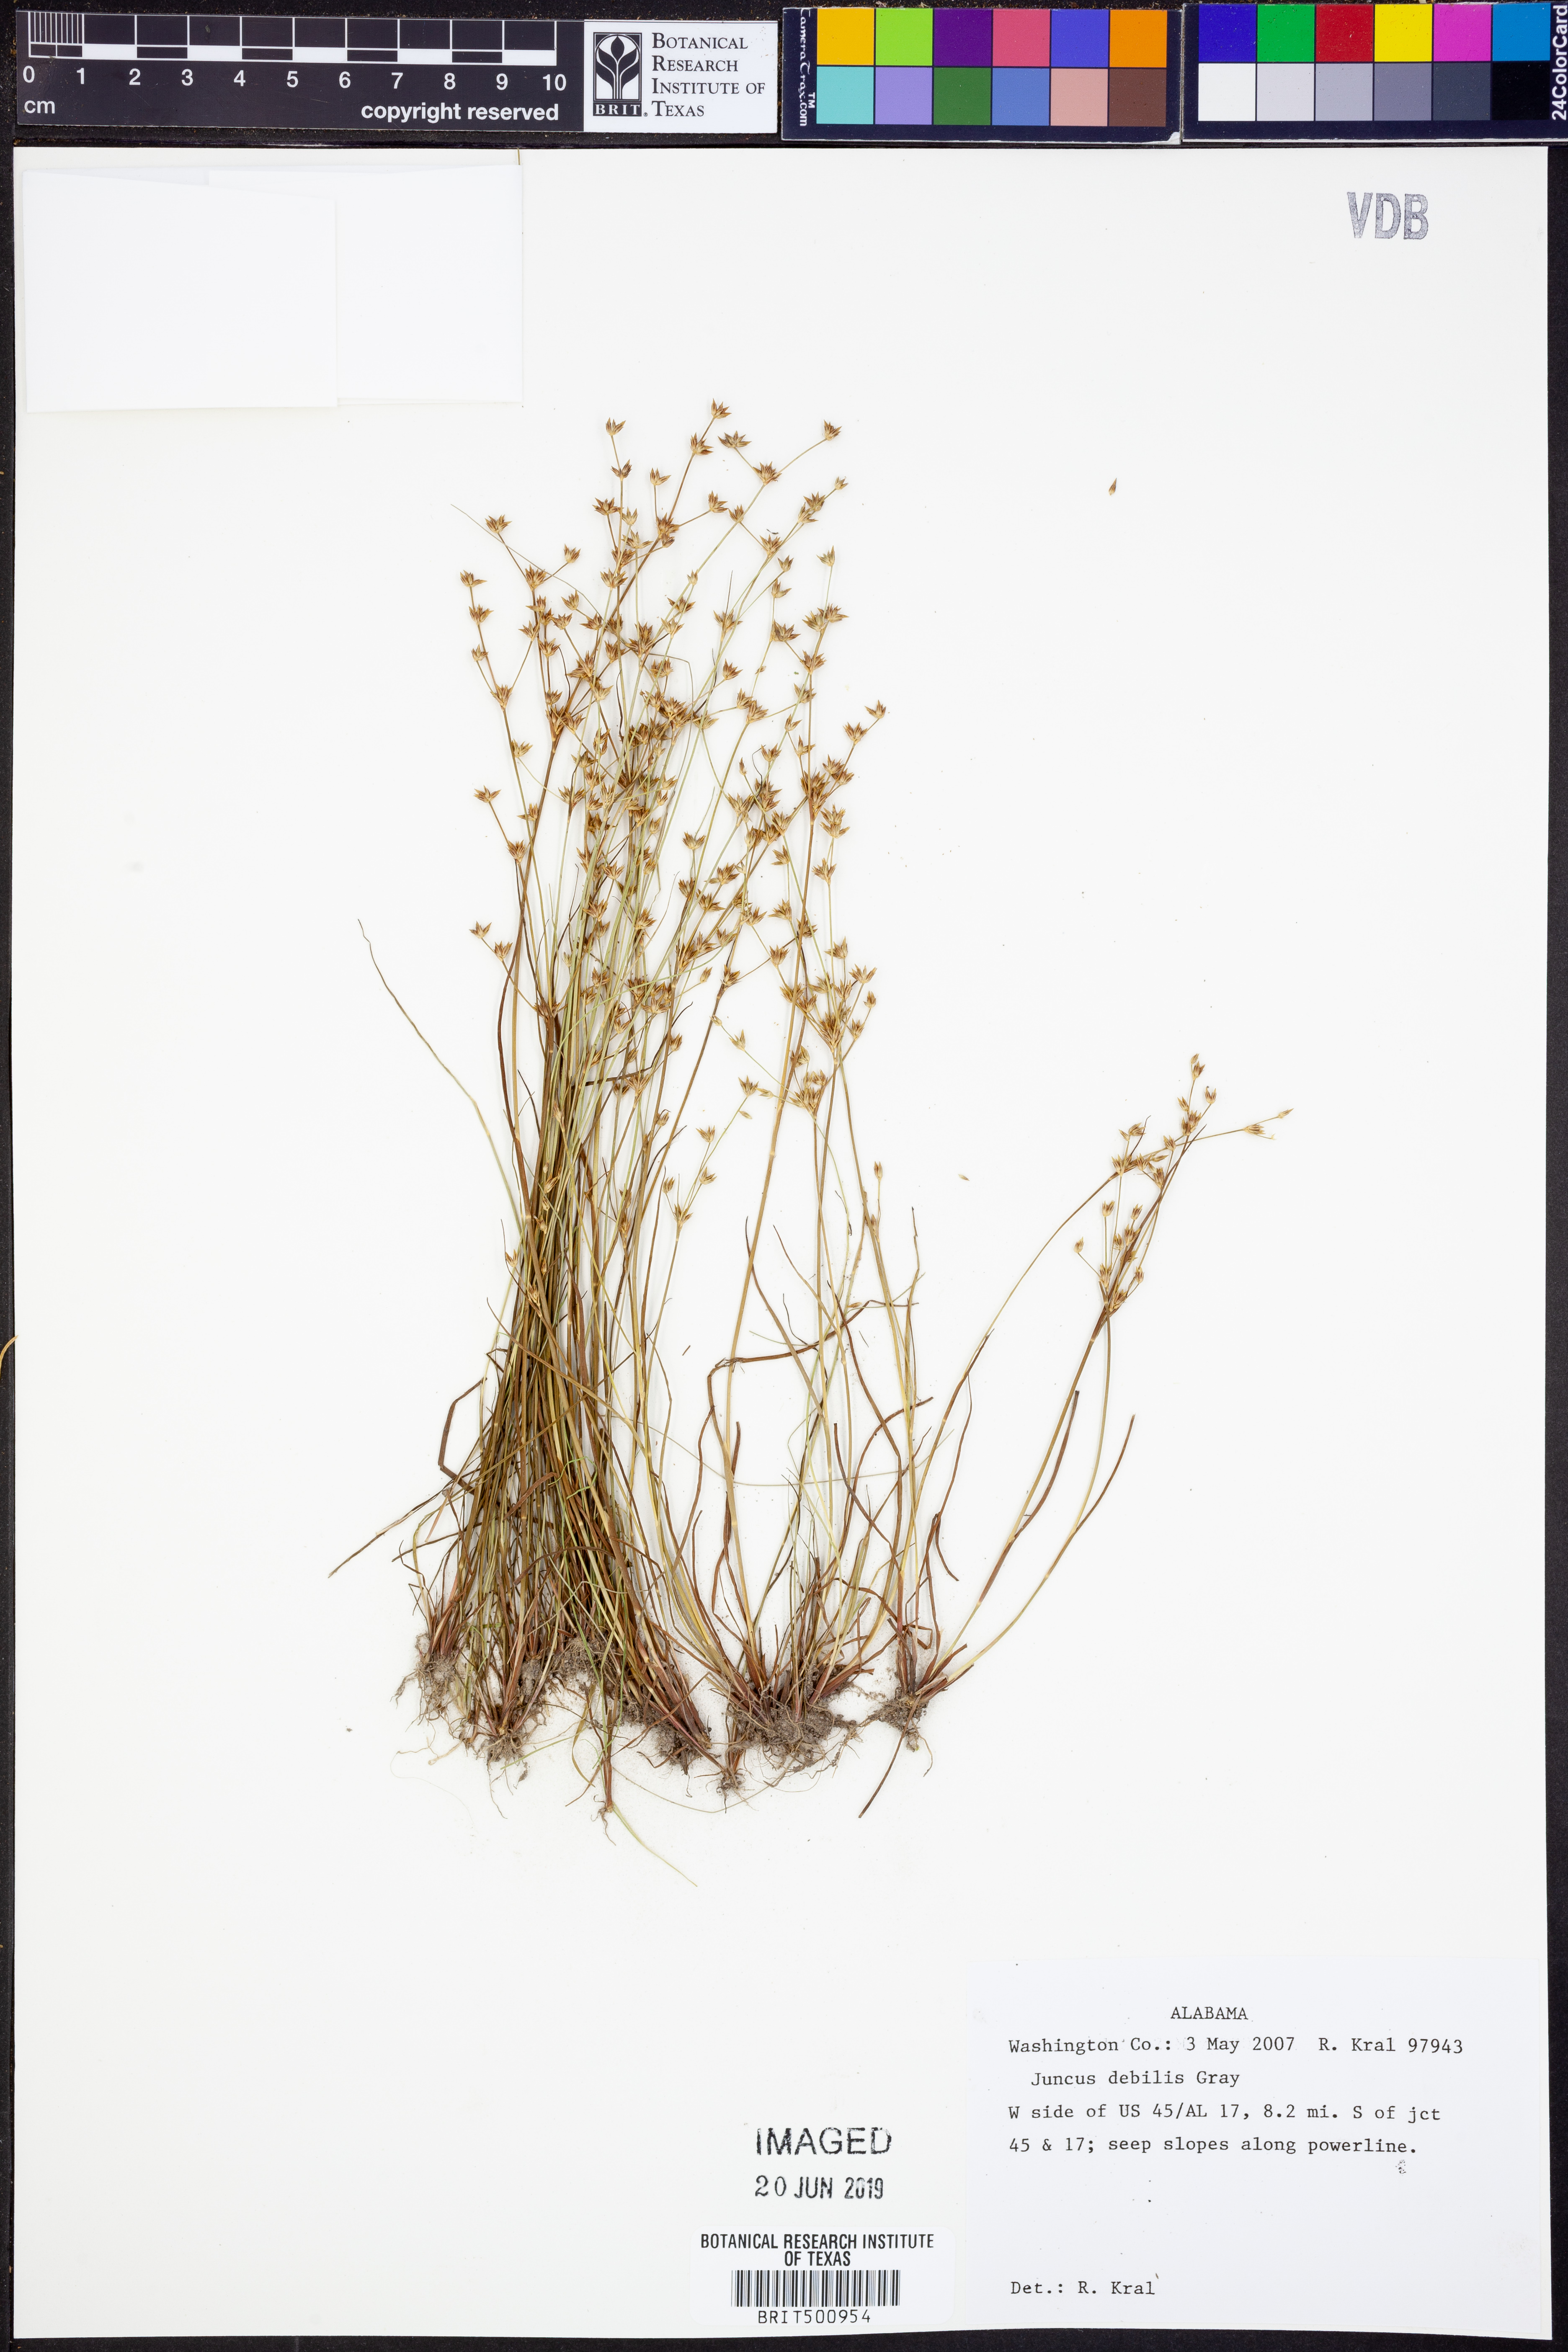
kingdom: Plantae
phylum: Tracheophyta
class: Liliopsida
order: Poales
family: Juncaceae
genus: Juncus
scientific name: Juncus debilis
